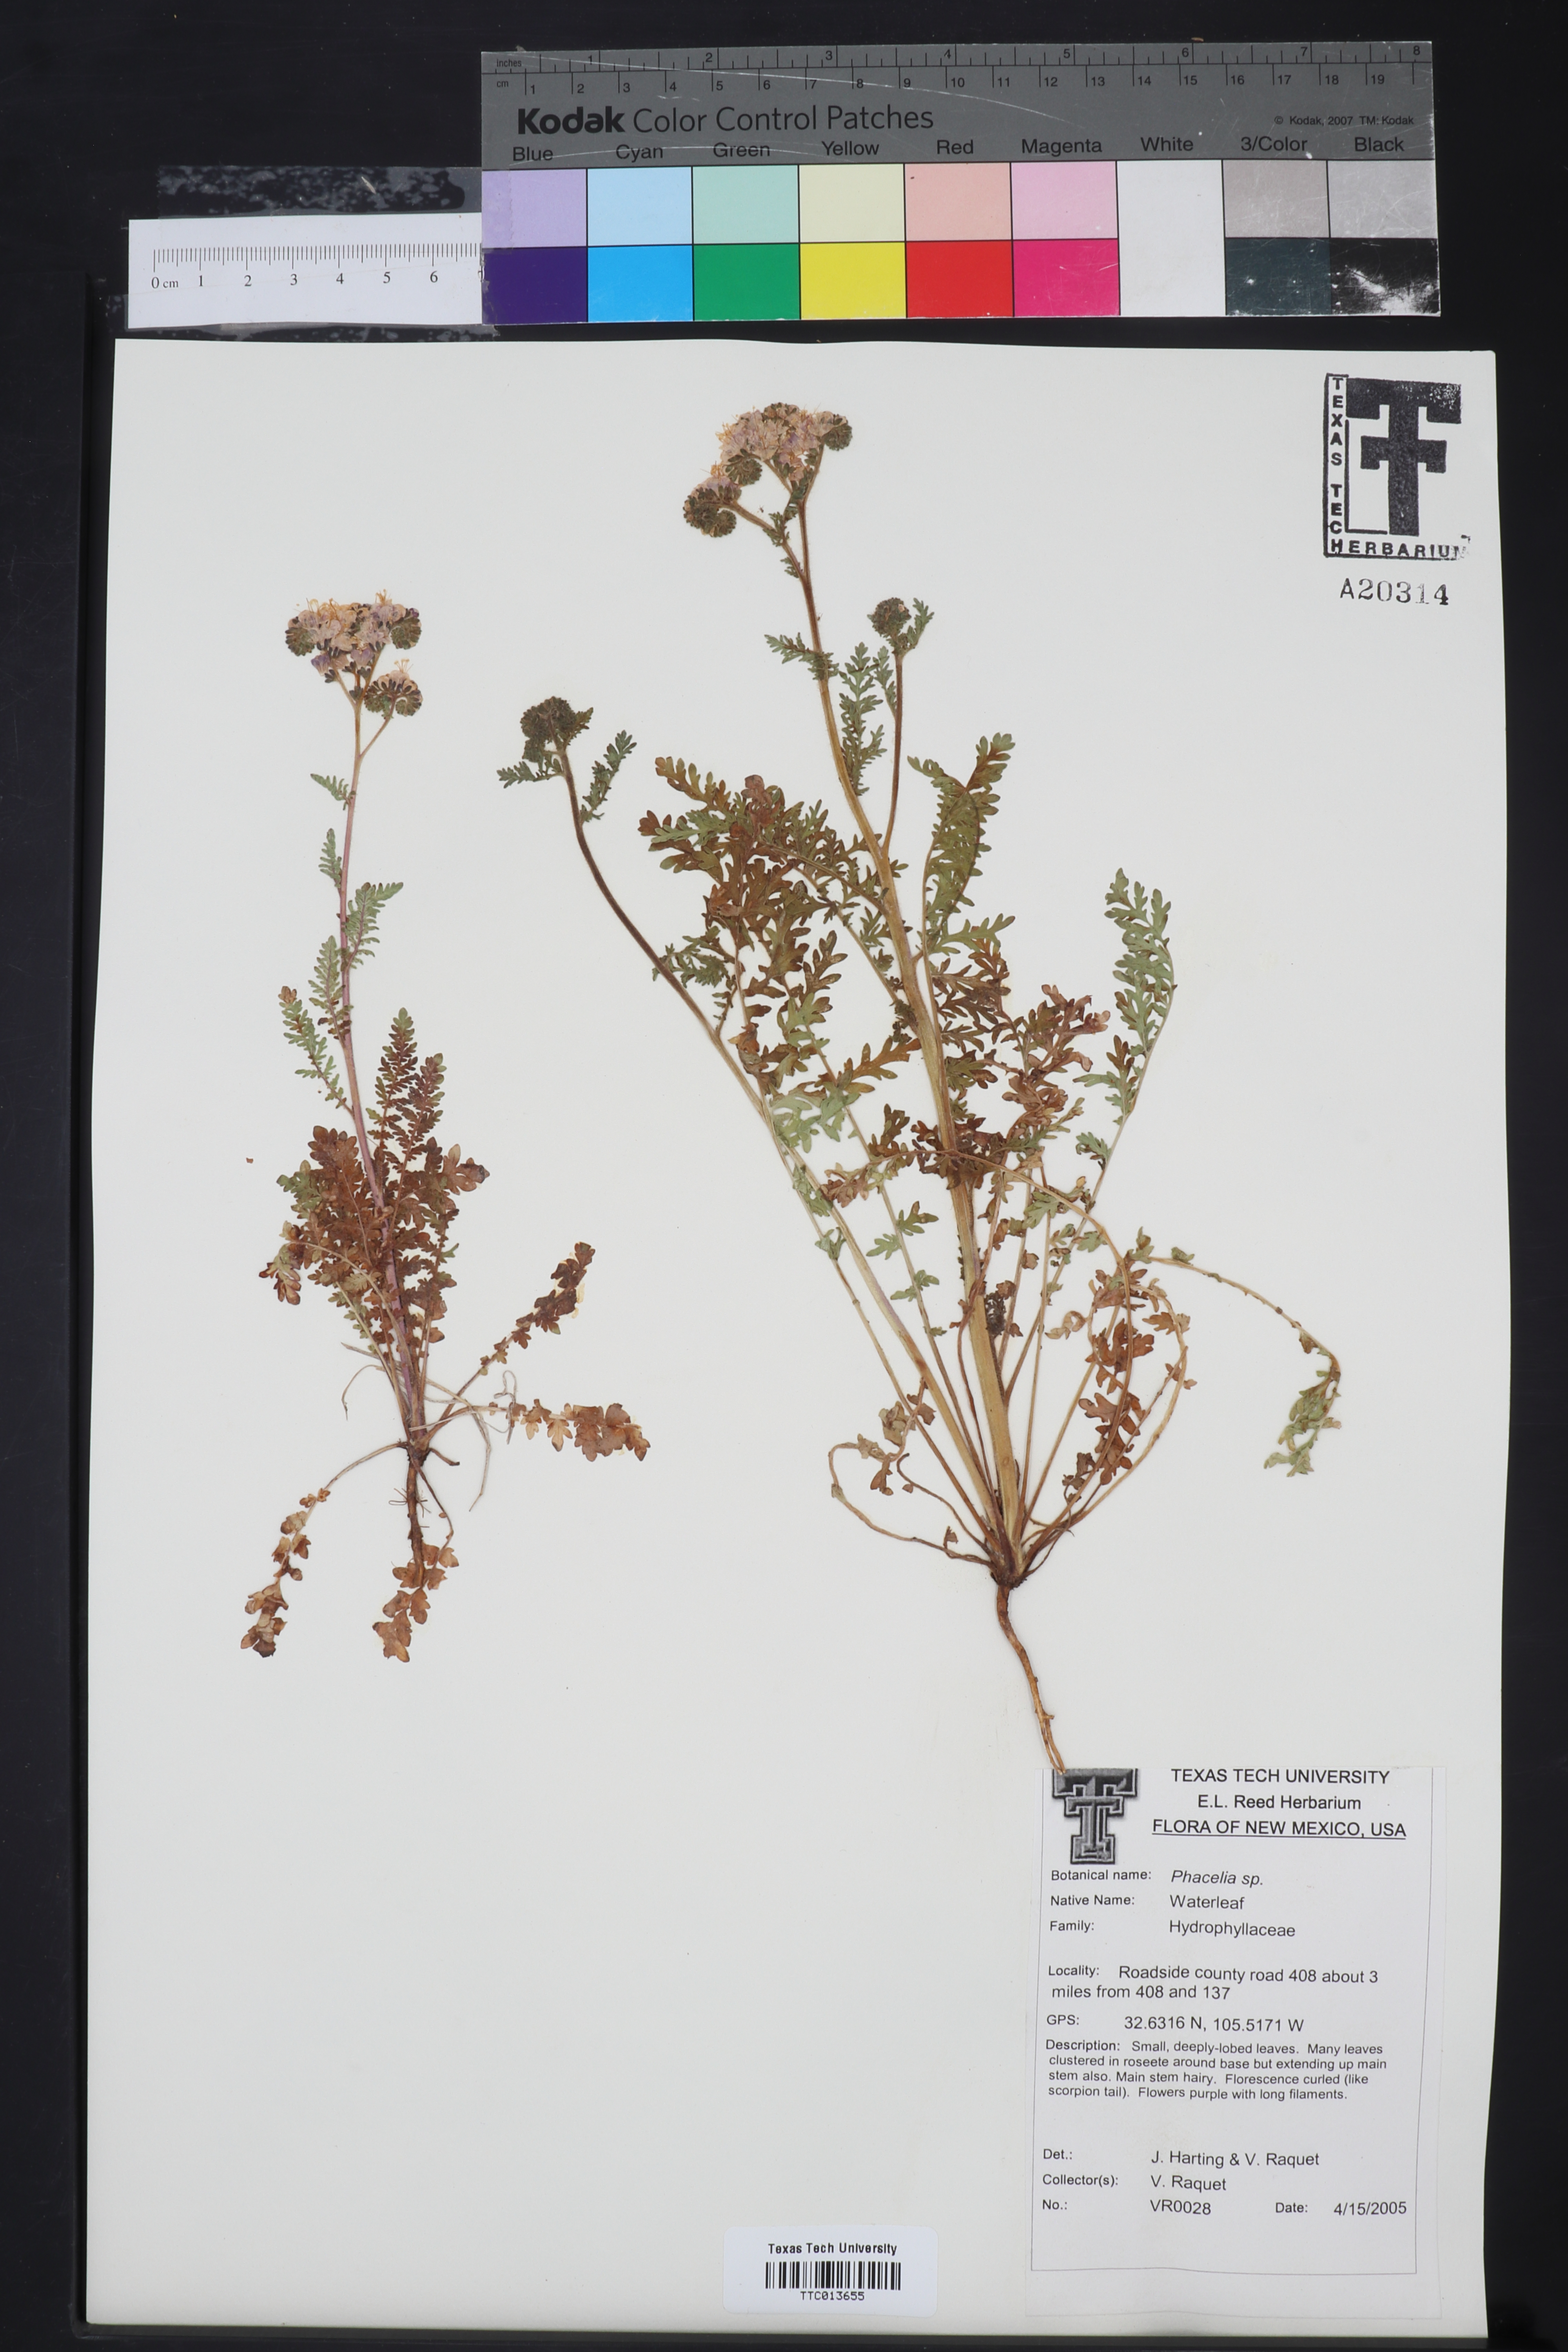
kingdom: Plantae
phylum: Tracheophyta
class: Magnoliopsida
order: Boraginales
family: Hydrophyllaceae
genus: Phacelia
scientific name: Phacelia
